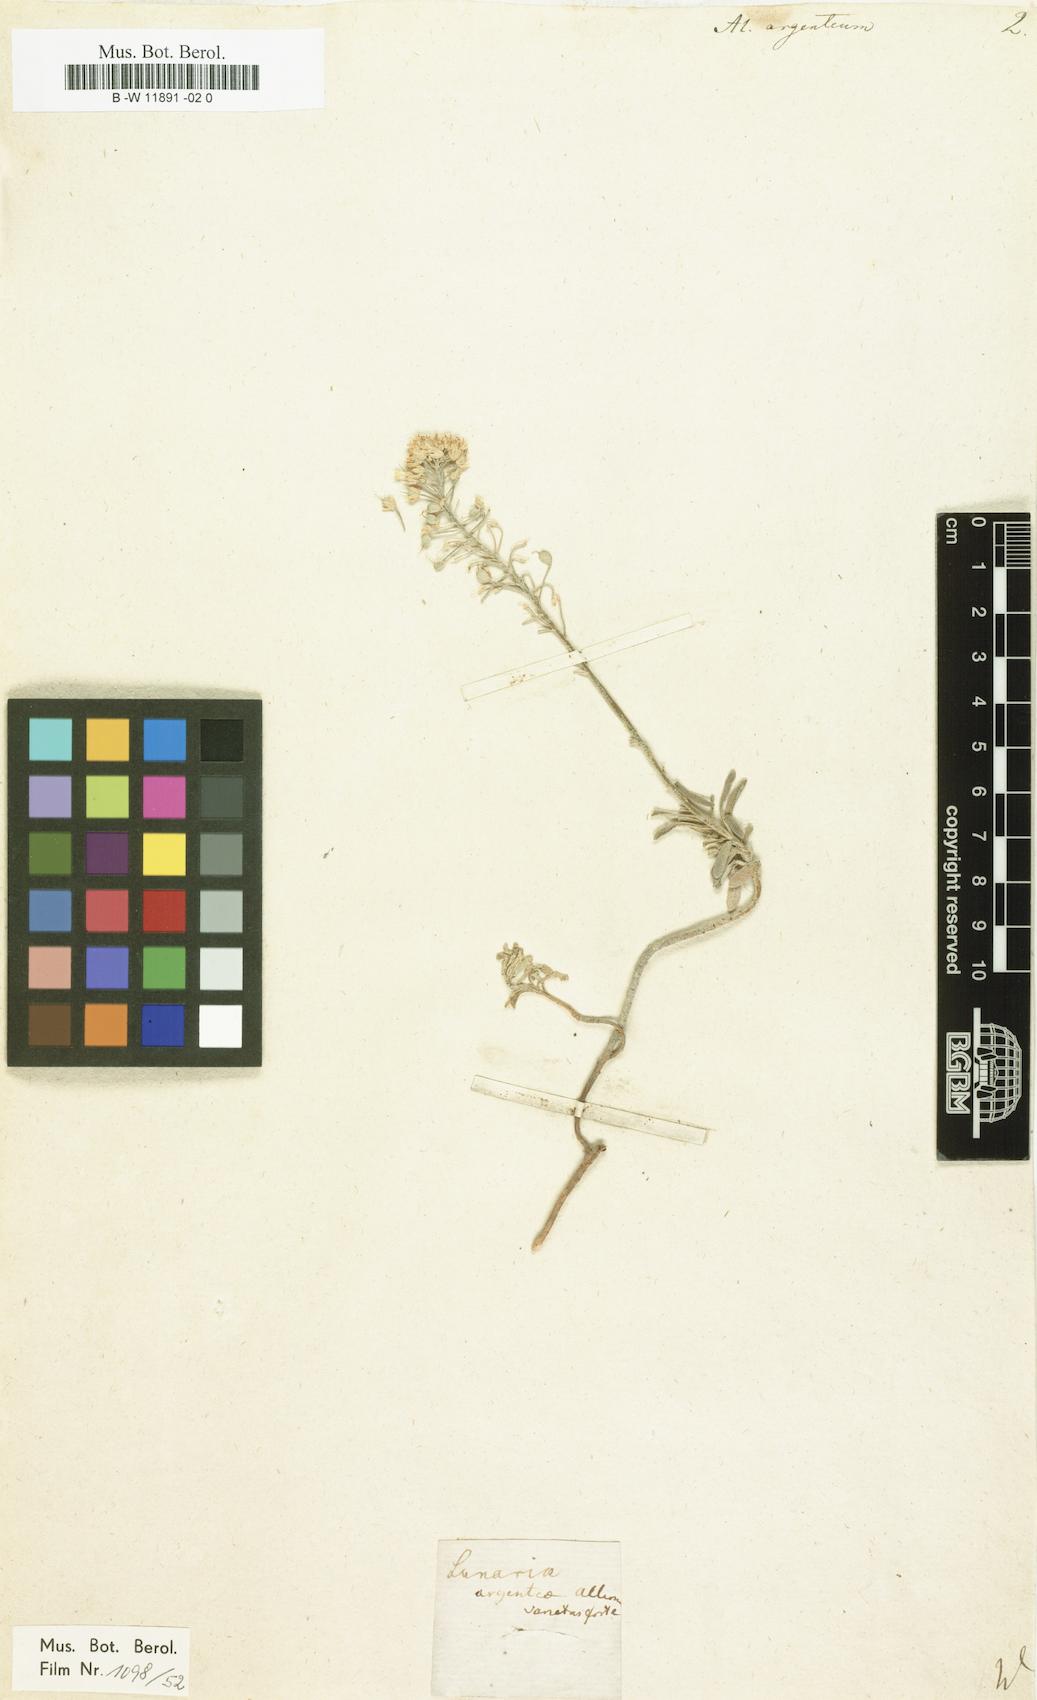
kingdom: Plantae
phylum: Tracheophyta
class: Magnoliopsida
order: Brassicales
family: Brassicaceae
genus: Odontarrhena
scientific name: Odontarrhena argentea
